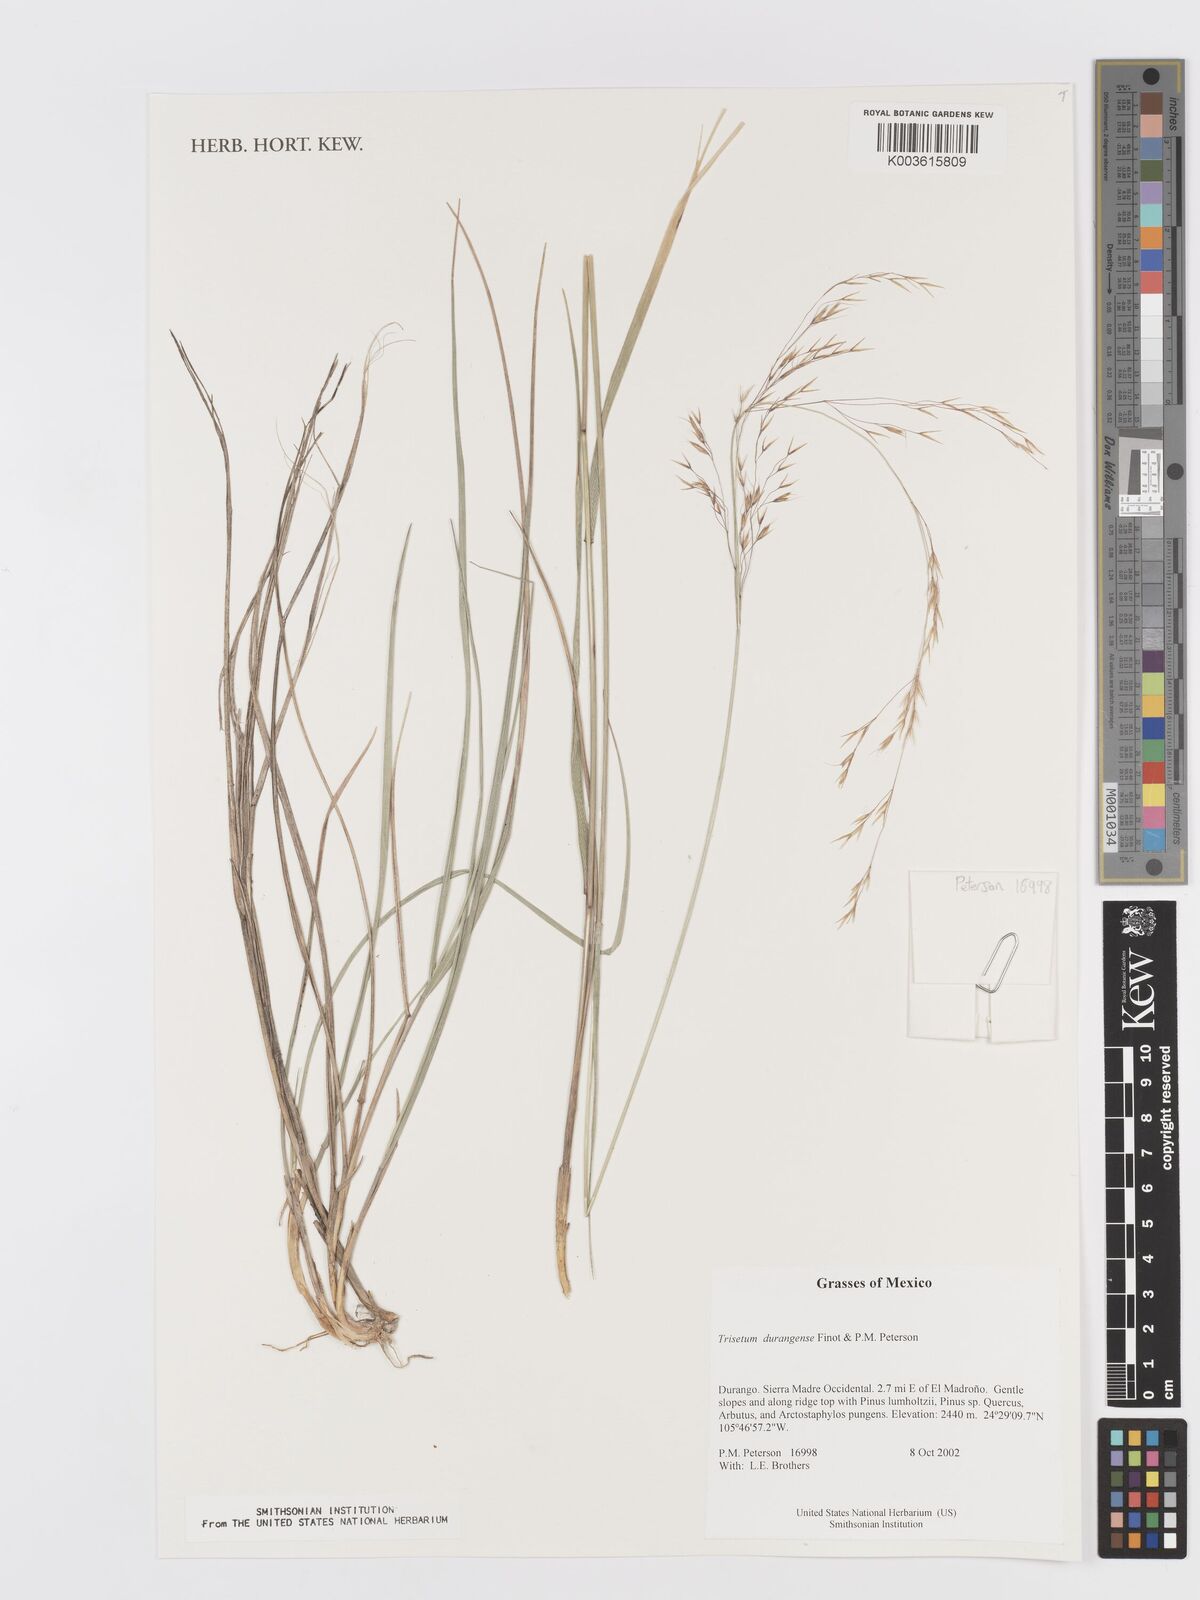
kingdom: Plantae
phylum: Tracheophyta
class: Liliopsida
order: Poales
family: Poaceae
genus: Peyritschia
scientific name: Peyritschia durangensis
